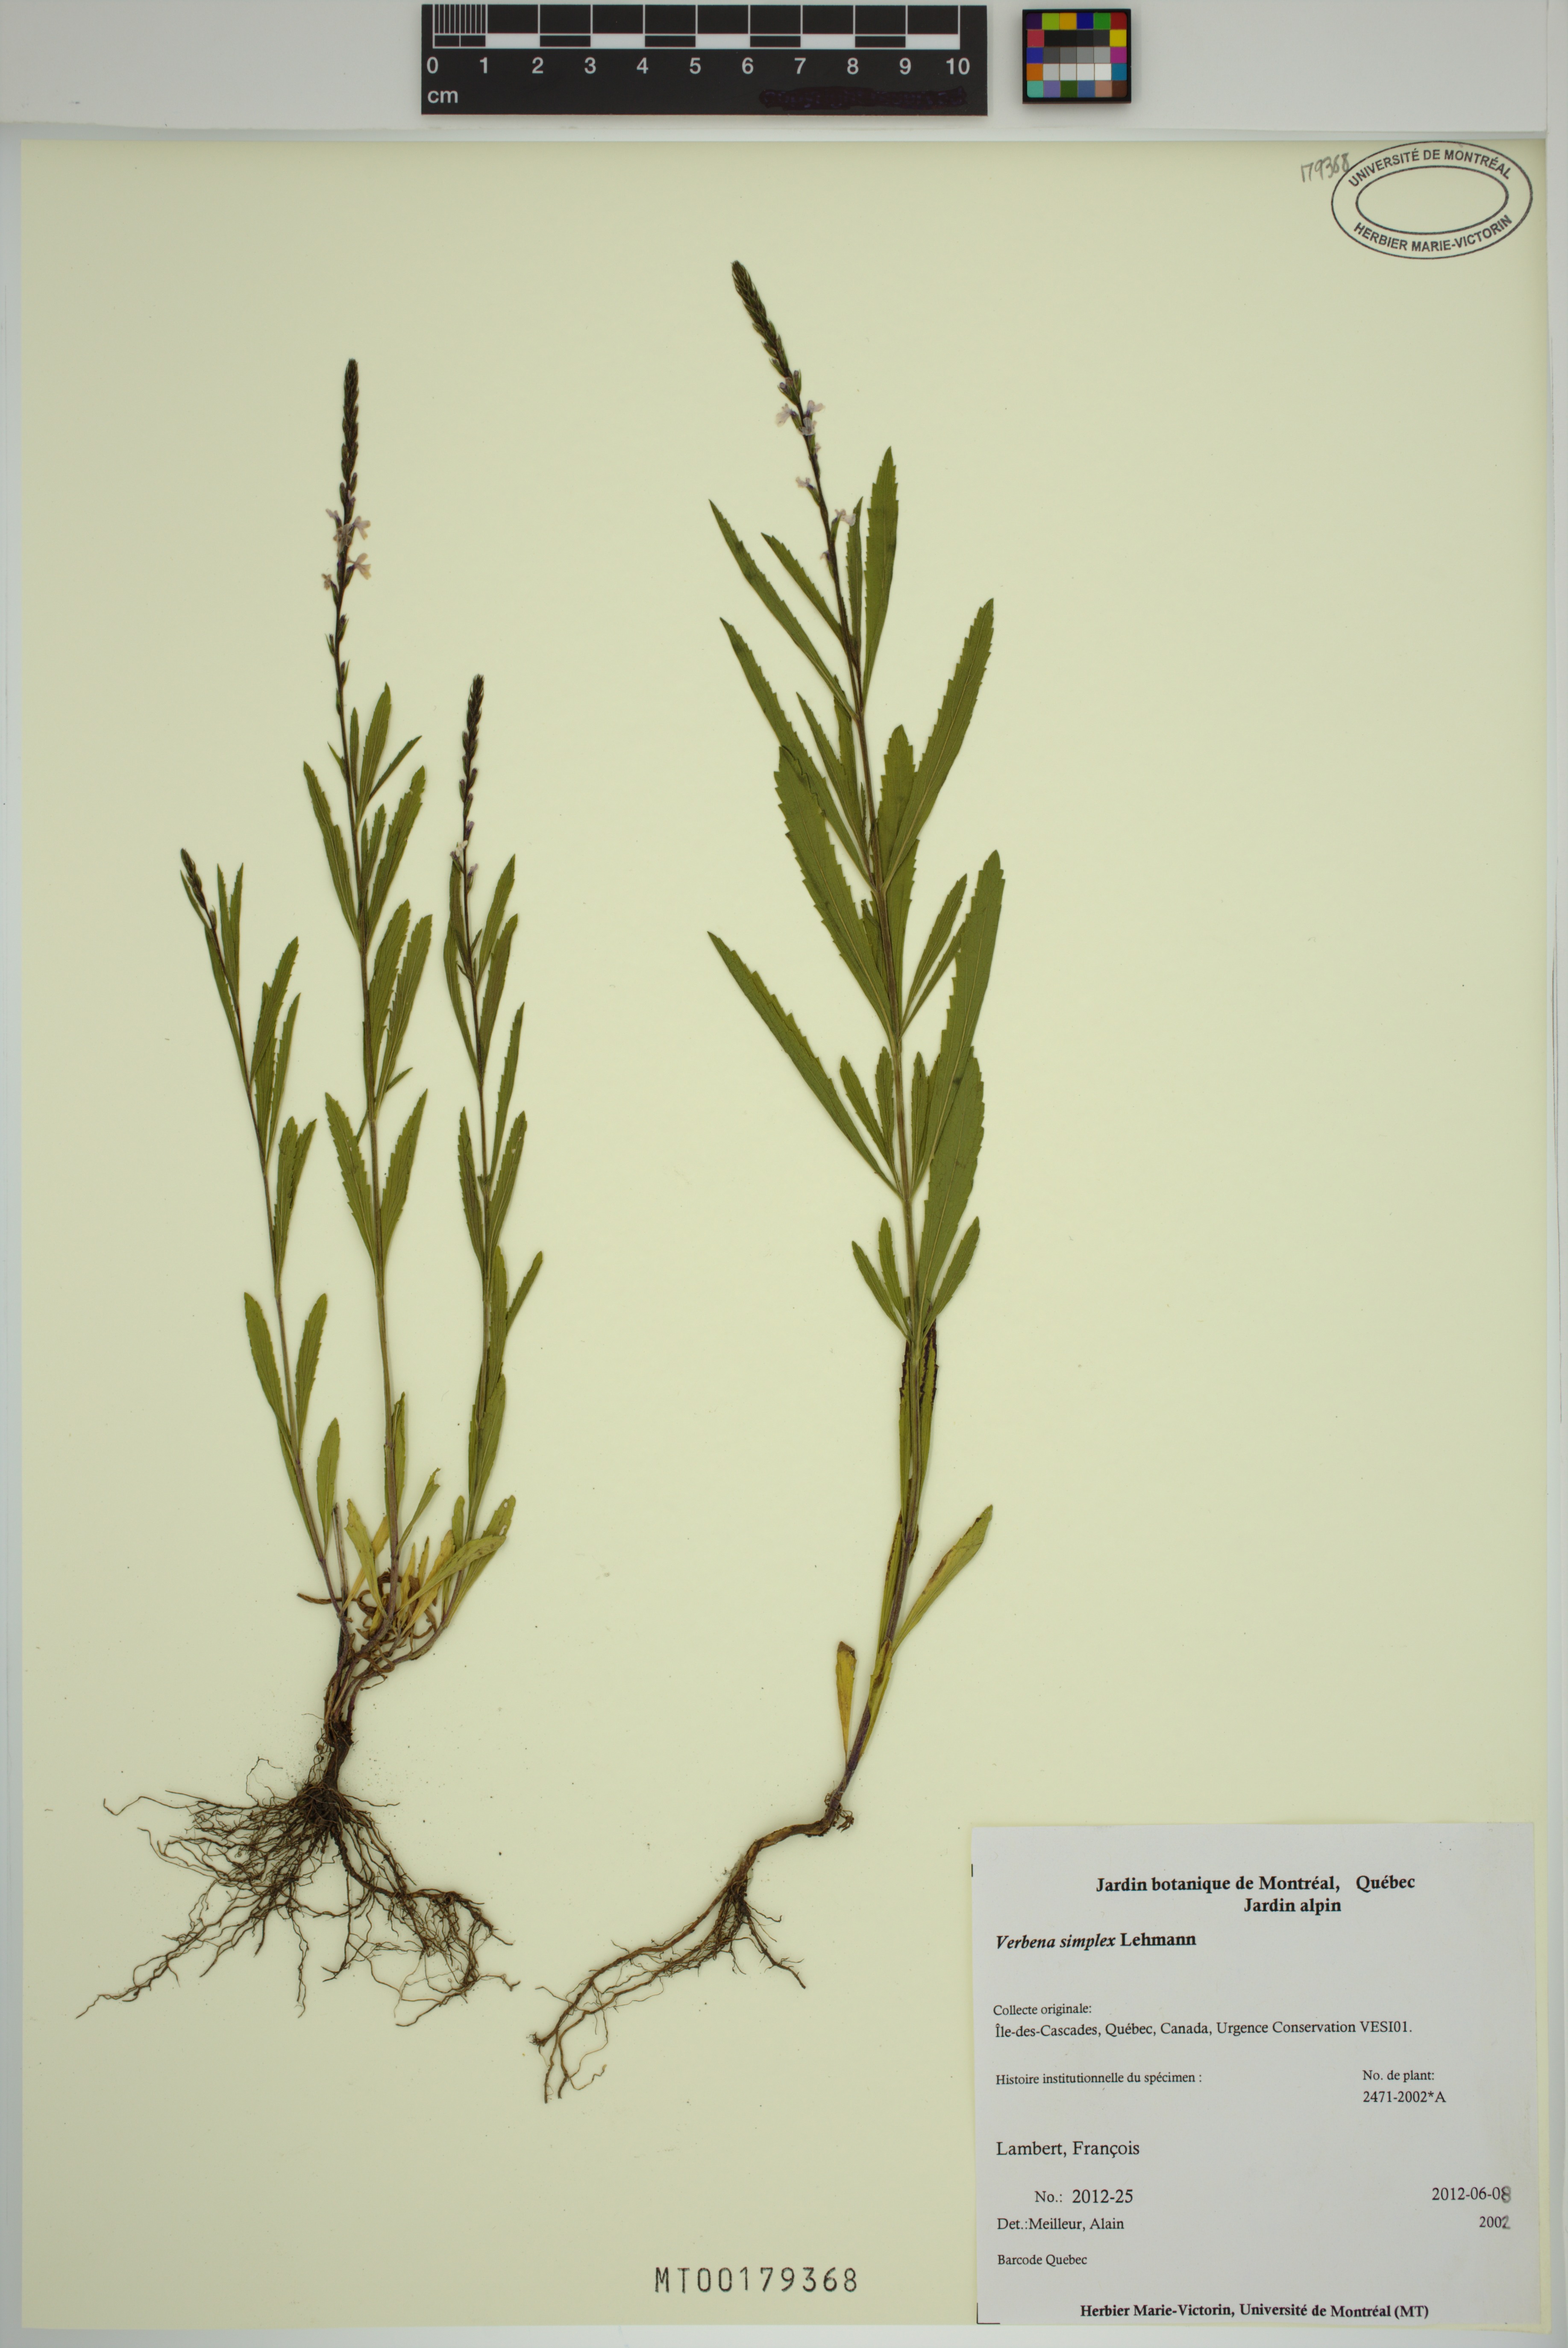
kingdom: Plantae
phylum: Tracheophyta
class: Magnoliopsida
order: Lamiales
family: Verbenaceae
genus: Verbena
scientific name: Verbena simplex
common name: Narrow-leaf vervain
